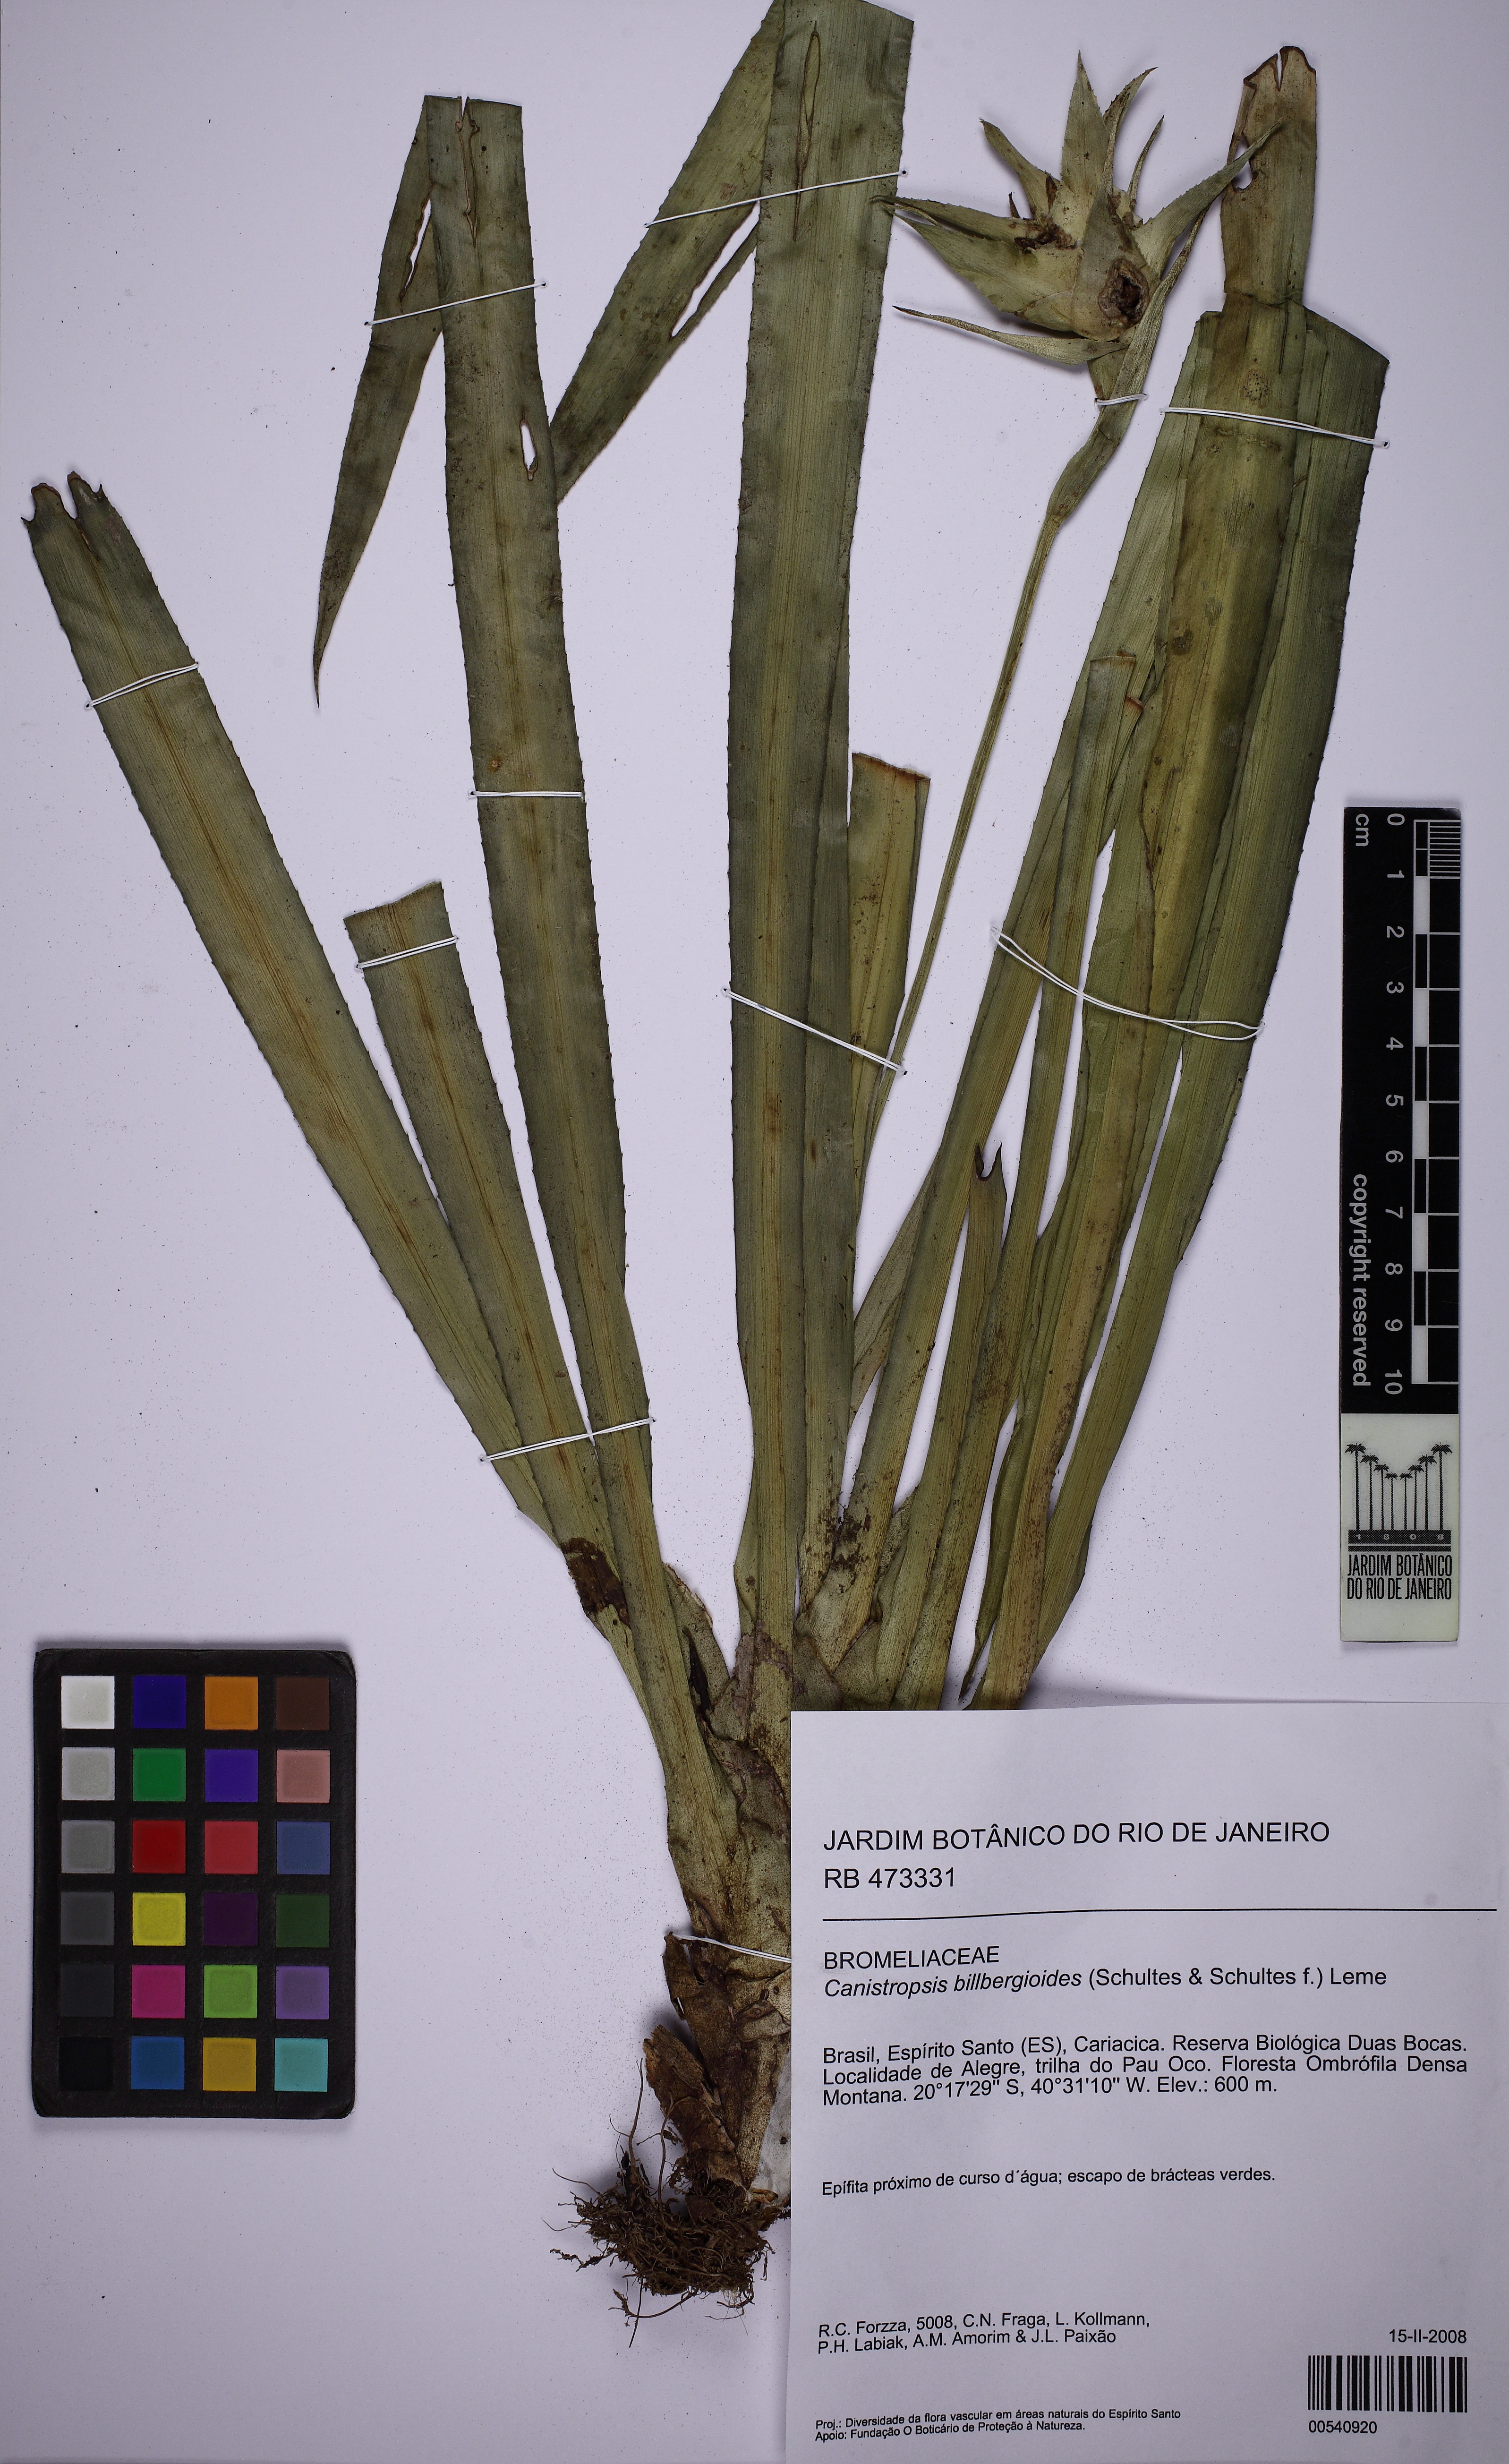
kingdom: Plantae
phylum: Tracheophyta
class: Liliopsida
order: Poales
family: Bromeliaceae
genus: Canistropsis
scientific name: Canistropsis billbergioides
